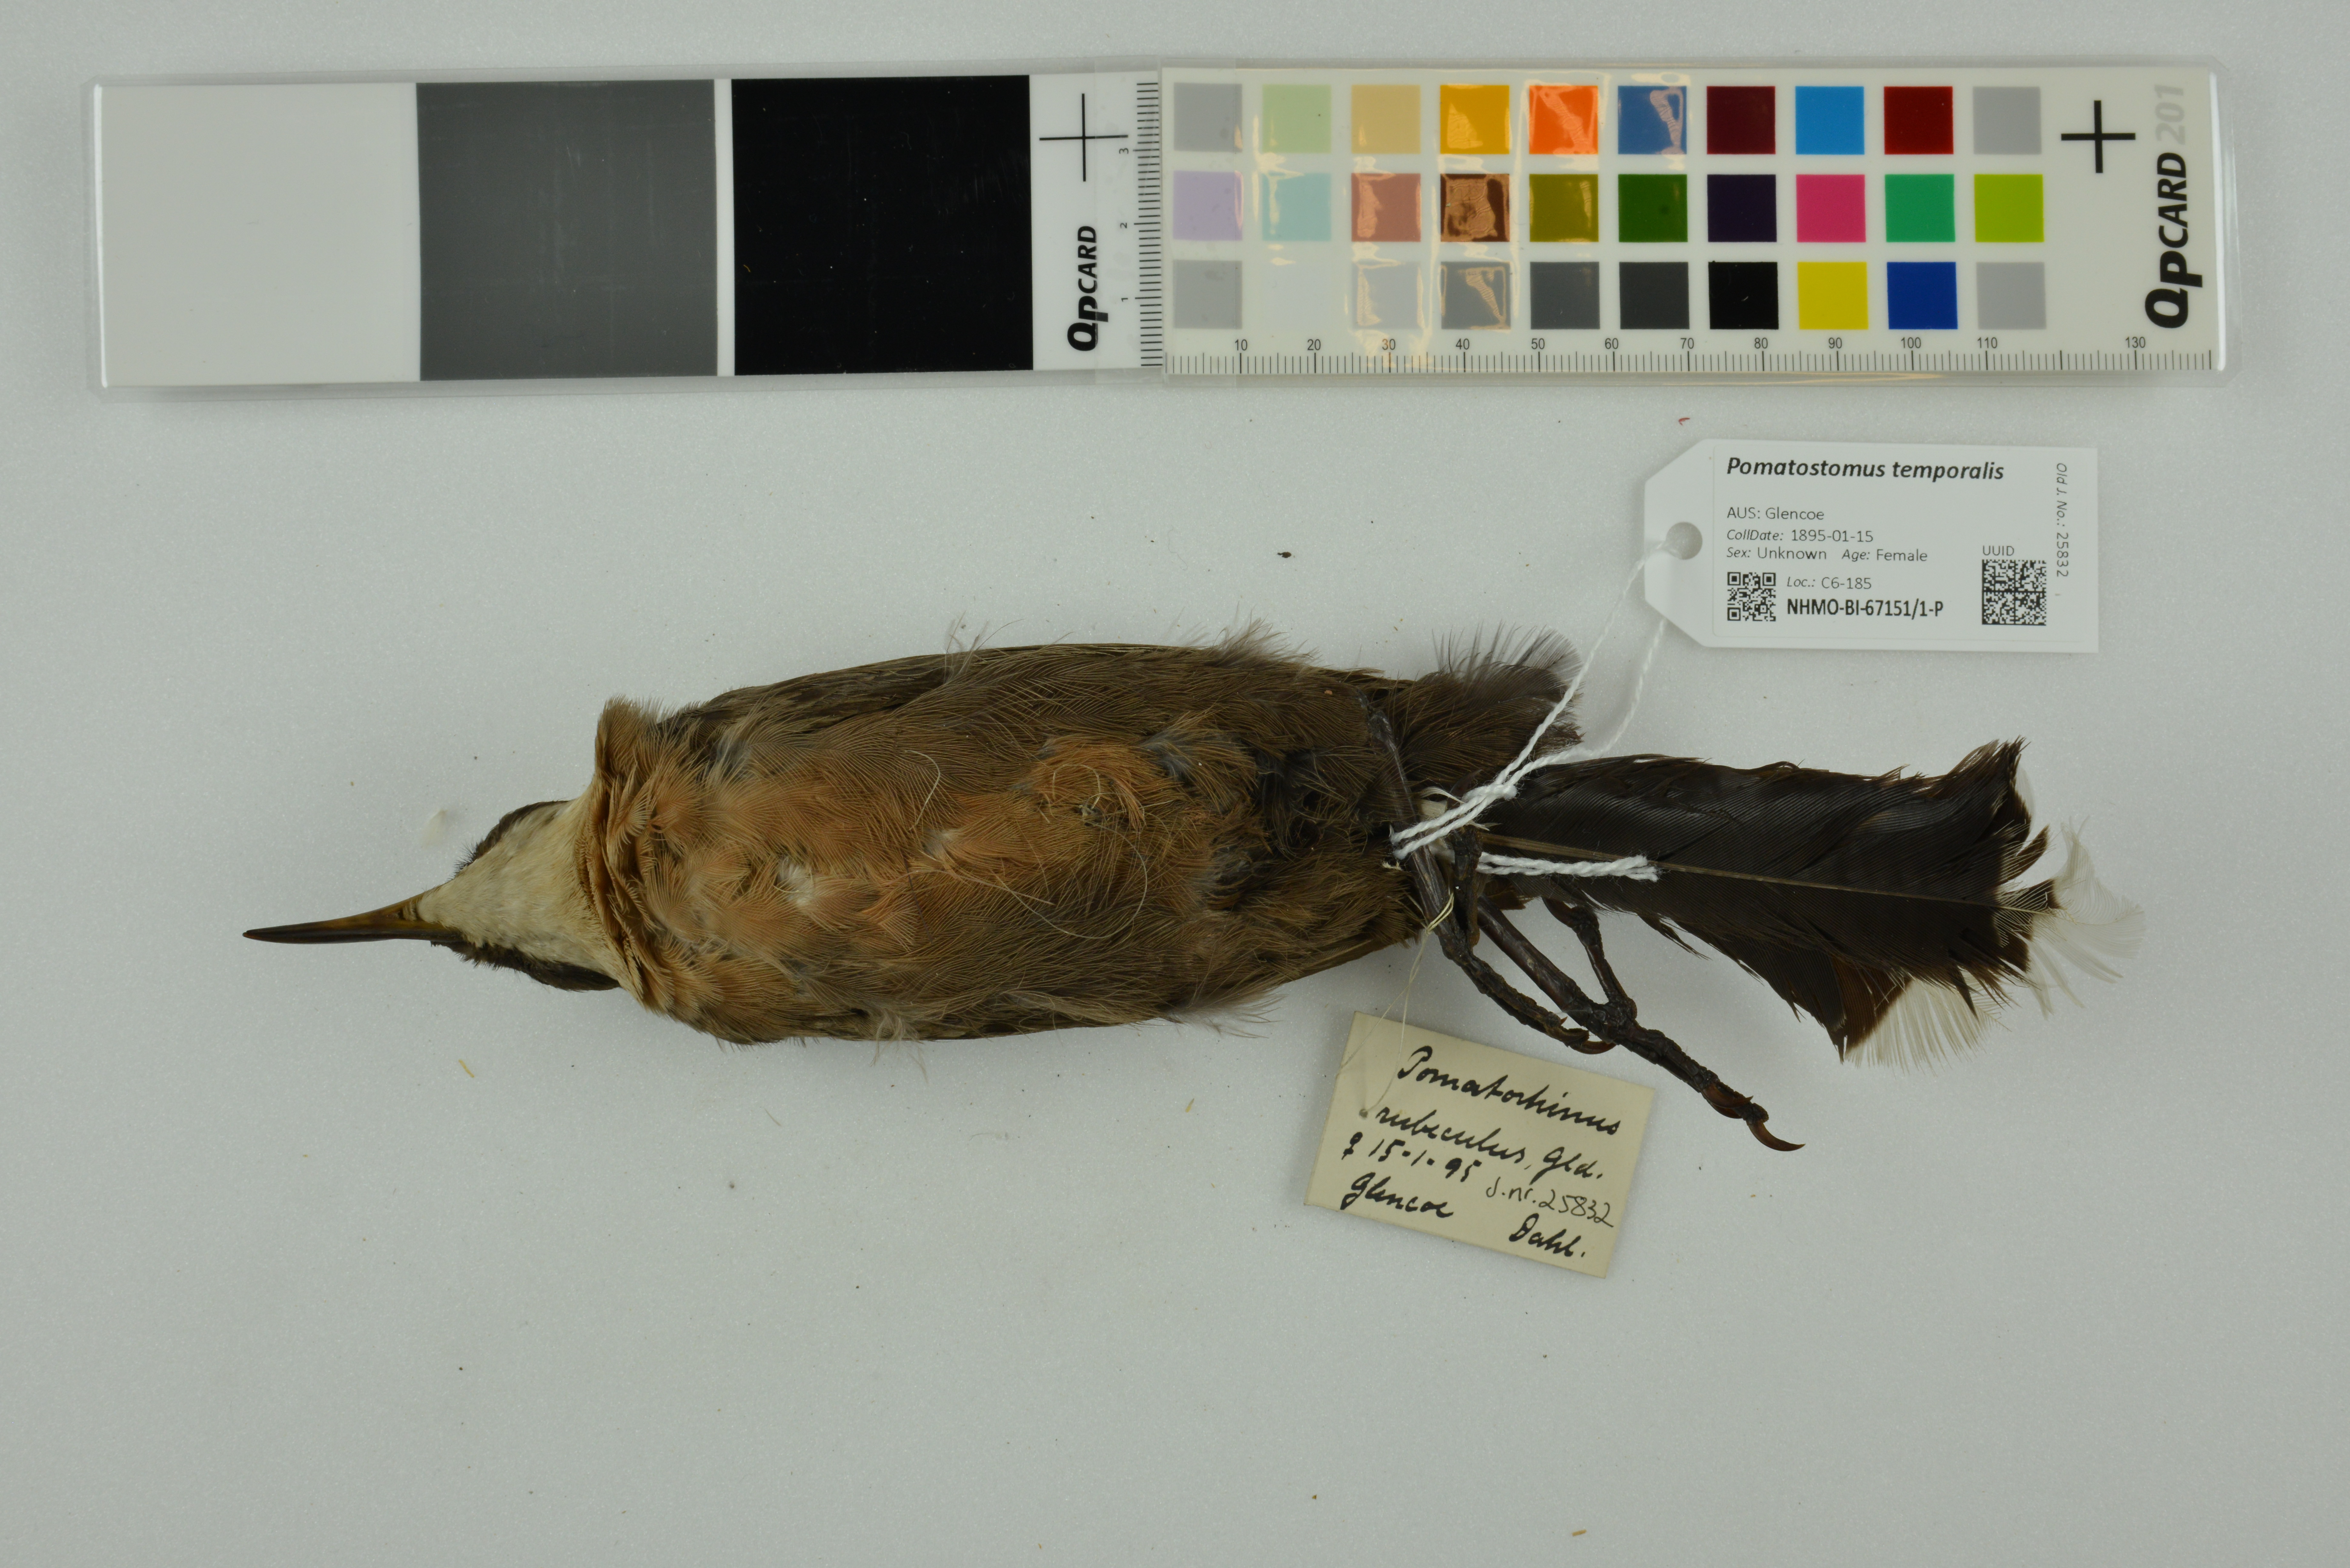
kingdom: Animalia
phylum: Chordata
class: Aves
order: Passeriformes
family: Pomatostomidae
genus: Pomatostomus
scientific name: Pomatostomus temporalis
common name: Grey-crowned babbler
